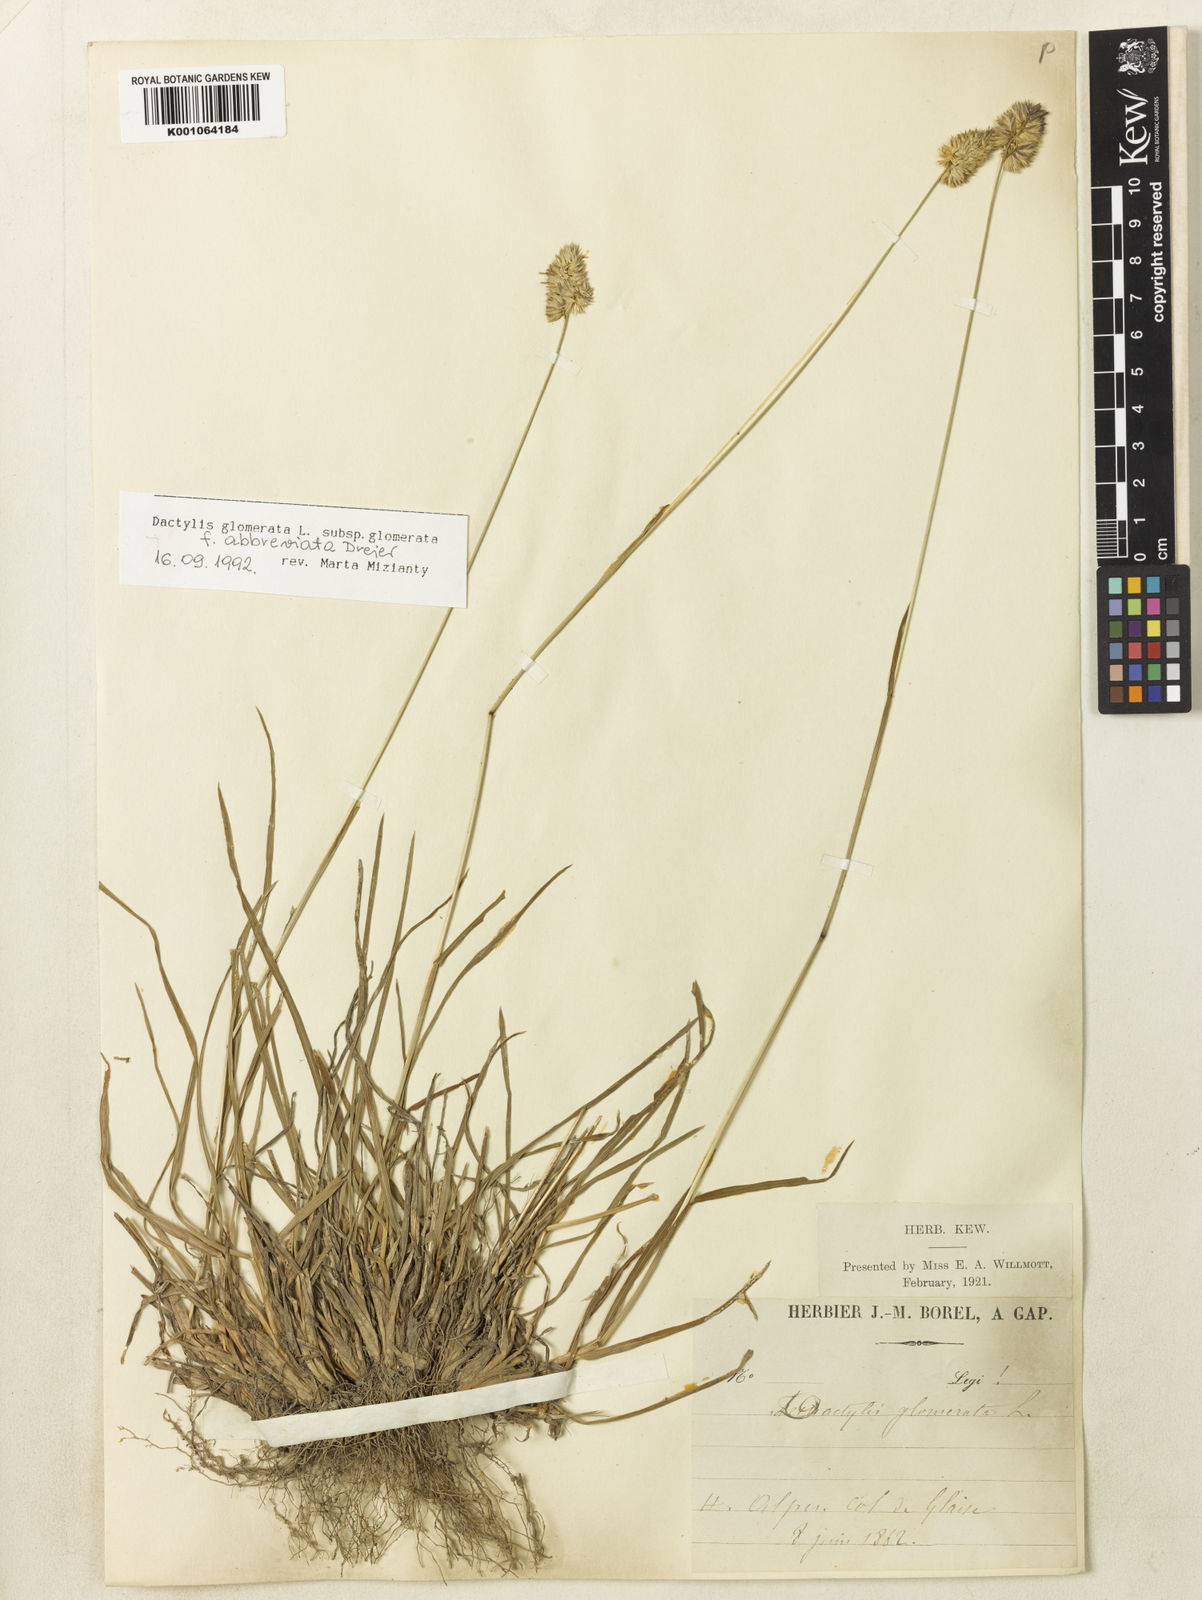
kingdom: Plantae
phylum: Tracheophyta
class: Liliopsida
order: Poales
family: Poaceae
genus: Dactylis
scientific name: Dactylis glomerata
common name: Orchardgrass
